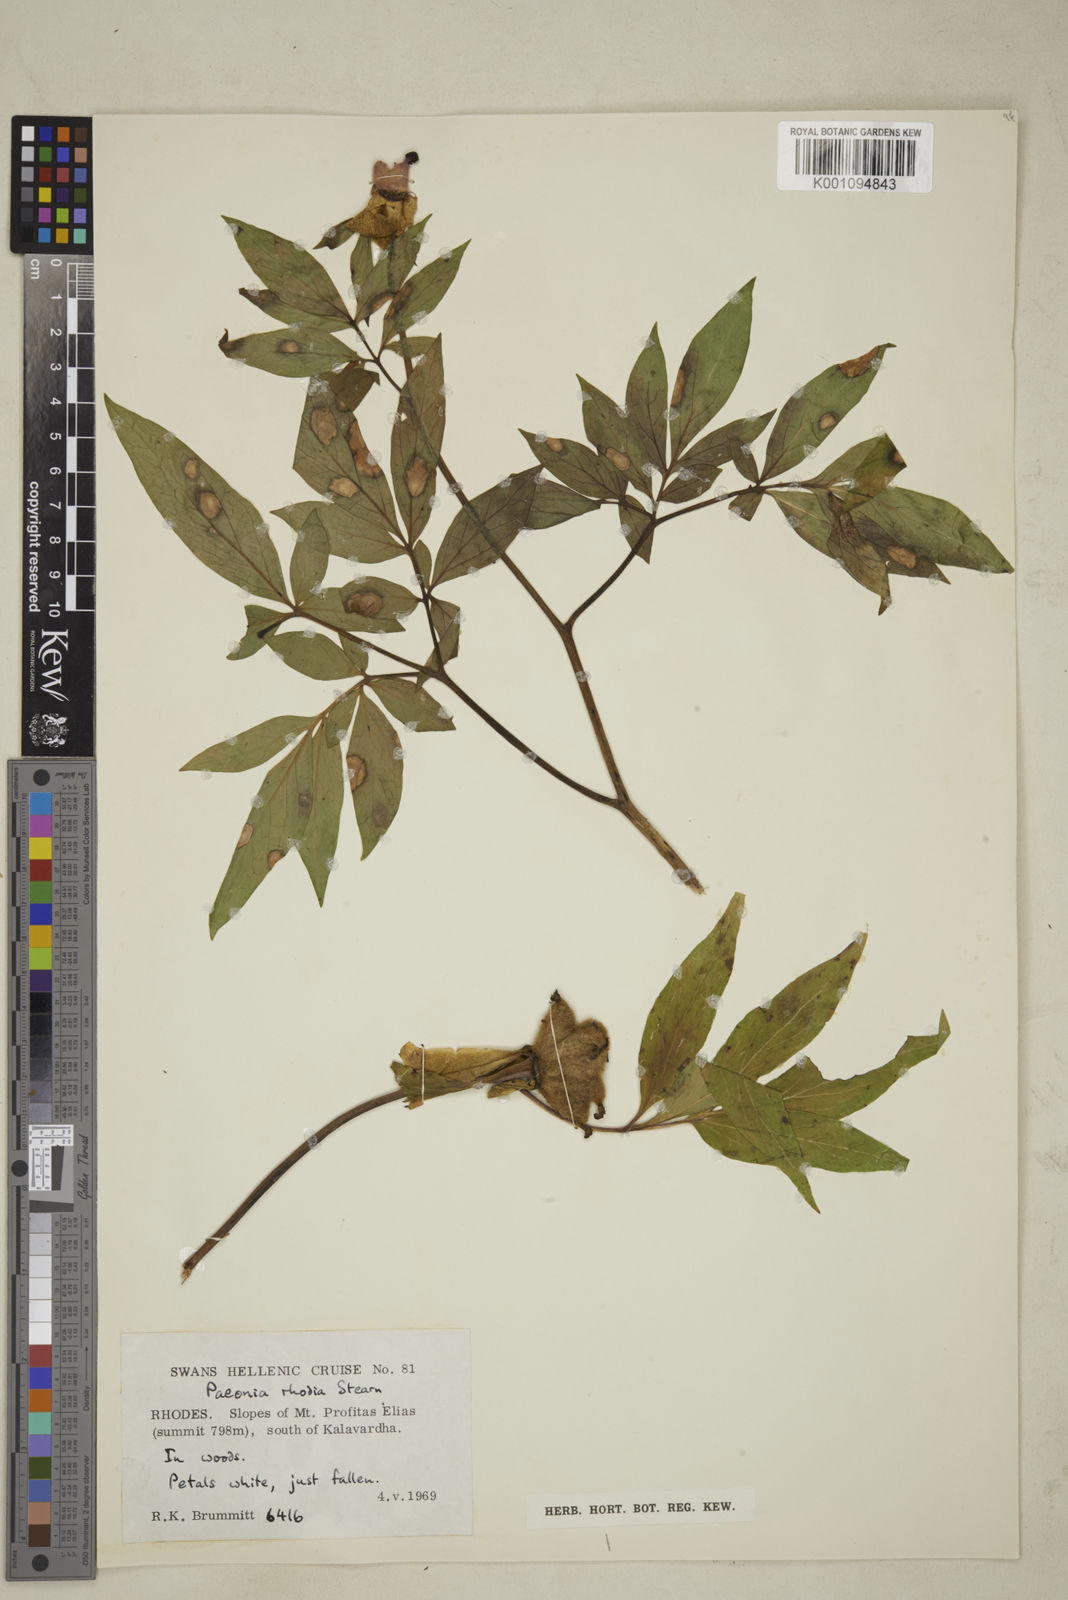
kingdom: Plantae
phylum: Tracheophyta
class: Magnoliopsida
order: Saxifragales
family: Paeoniaceae
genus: Paeonia
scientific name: Paeonia clusii
